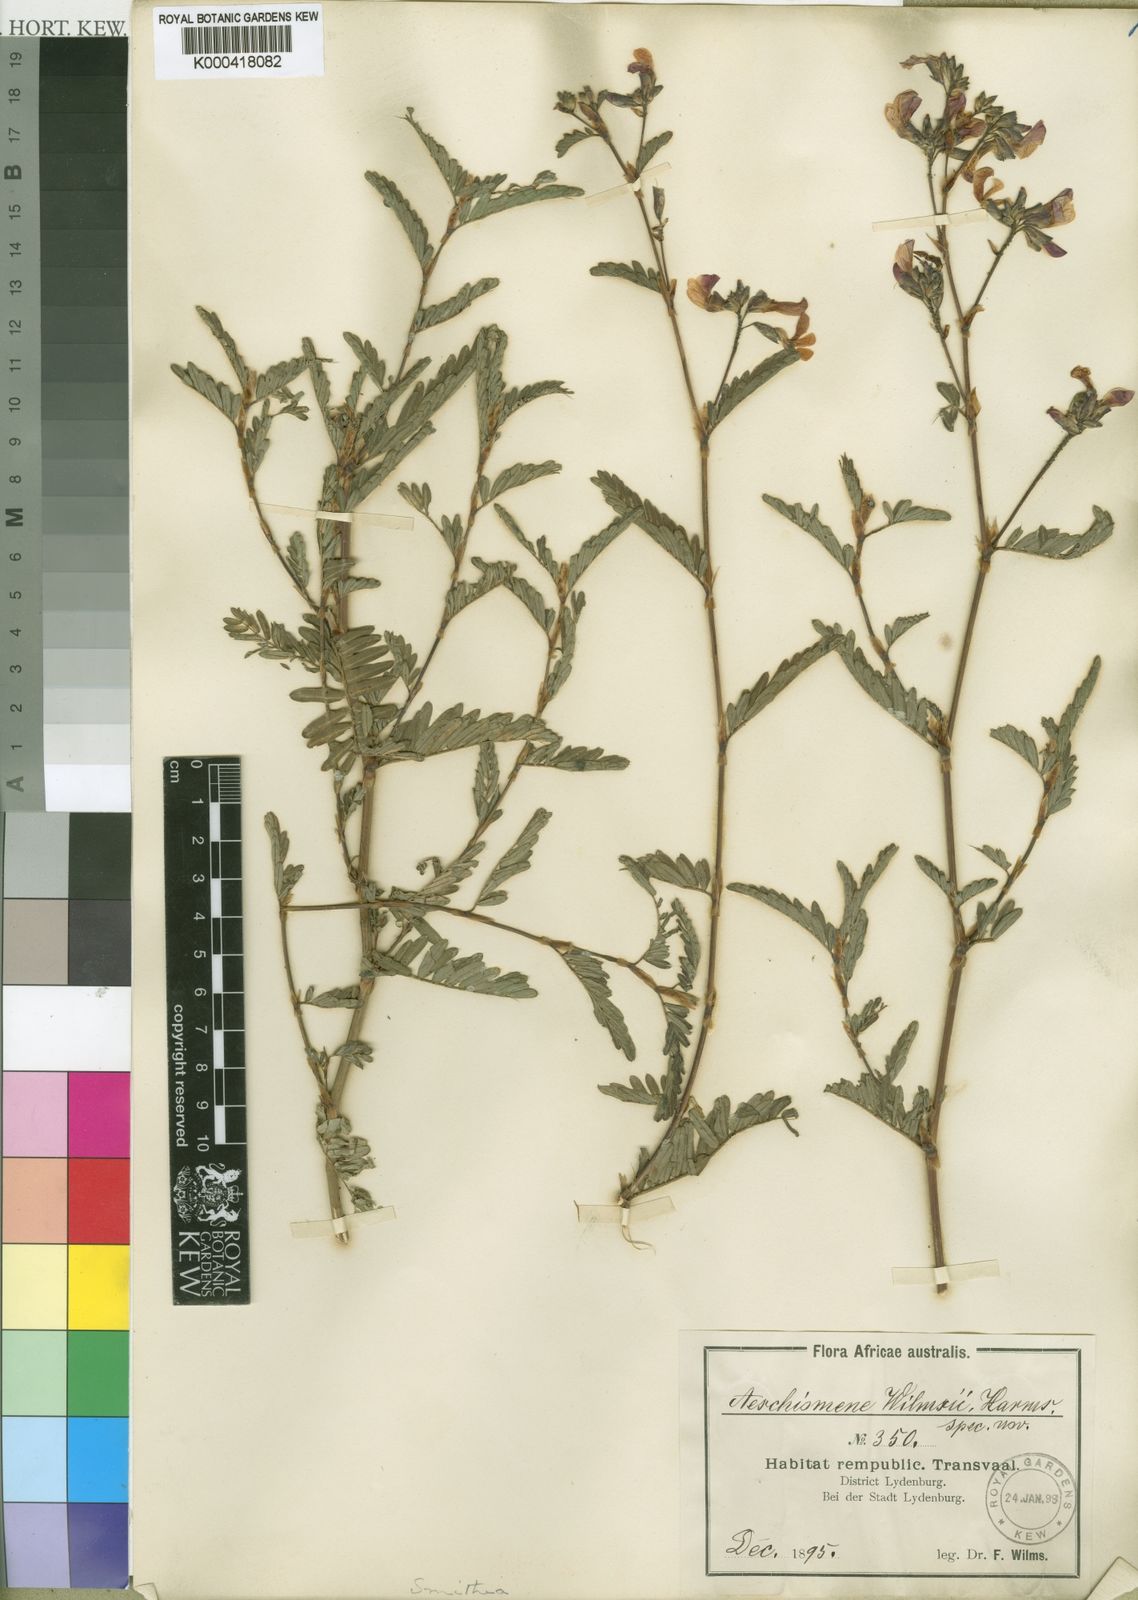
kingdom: Plantae
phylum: Tracheophyta
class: Magnoliopsida
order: Fabales
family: Fabaceae
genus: Smithia
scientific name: Smithia erubescens
